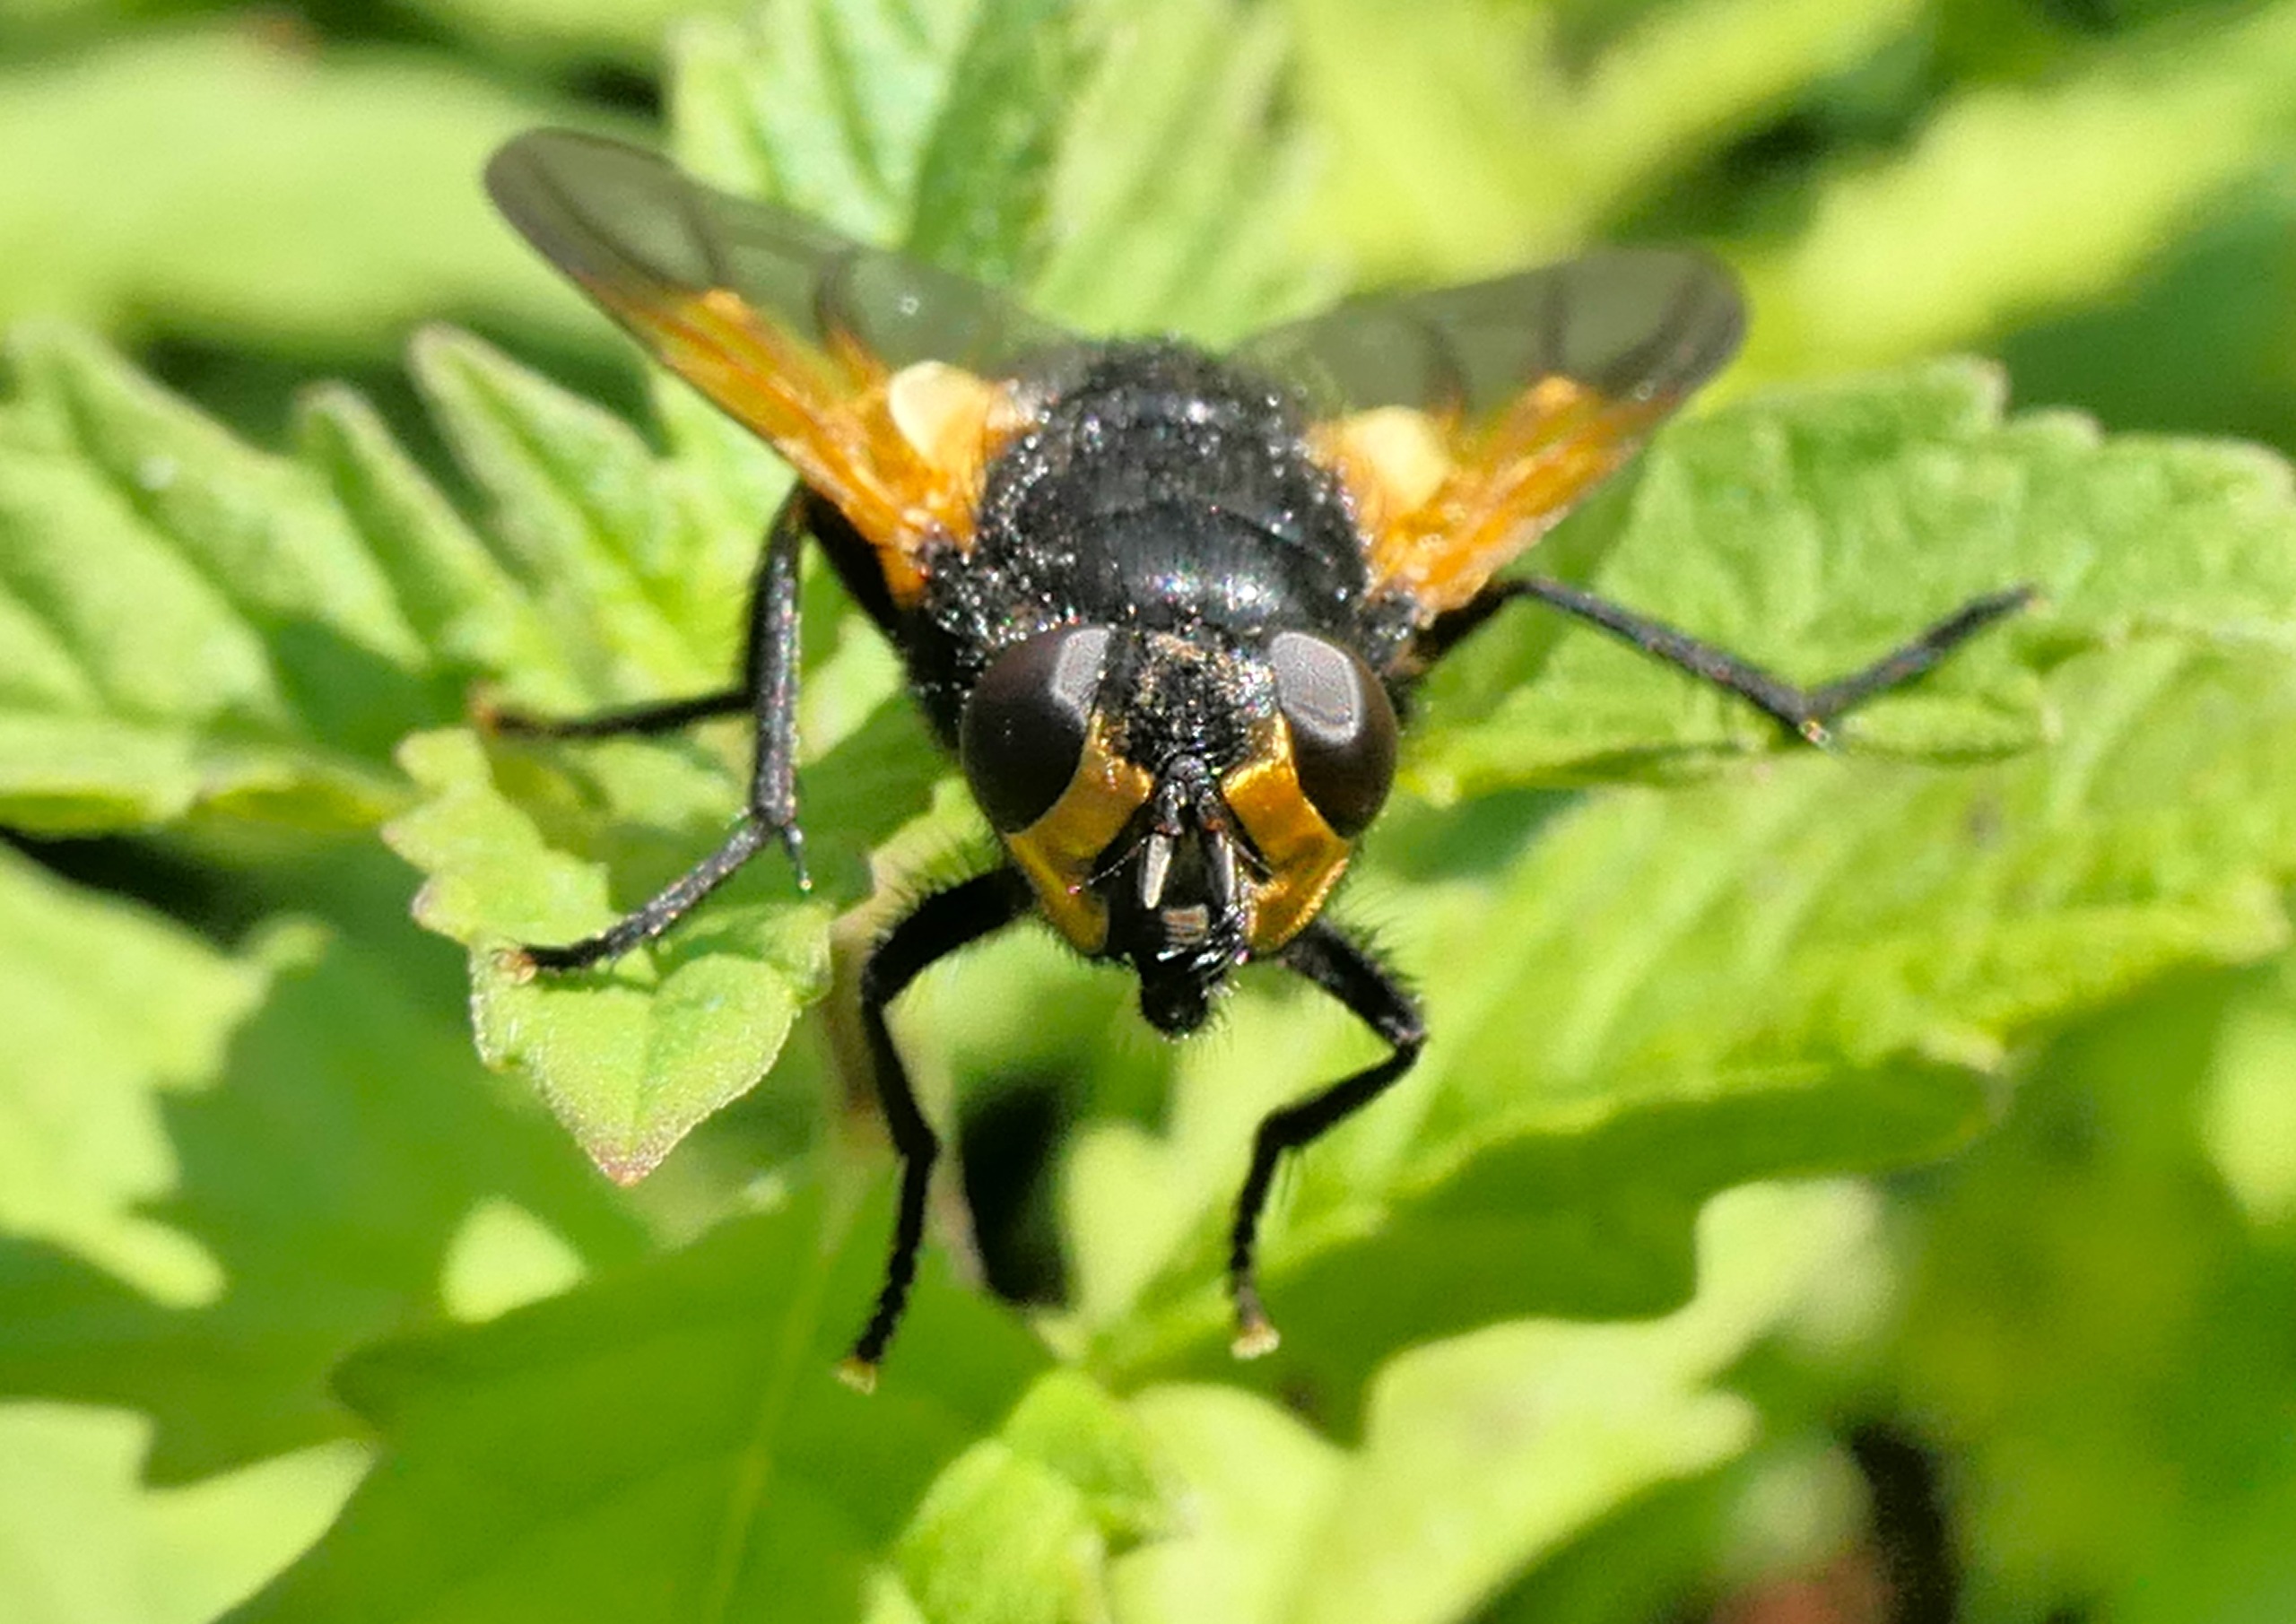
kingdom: Animalia
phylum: Arthropoda
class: Insecta
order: Diptera
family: Muscidae
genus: Mesembrina
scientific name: Mesembrina meridiana
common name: Gulvinget flue
